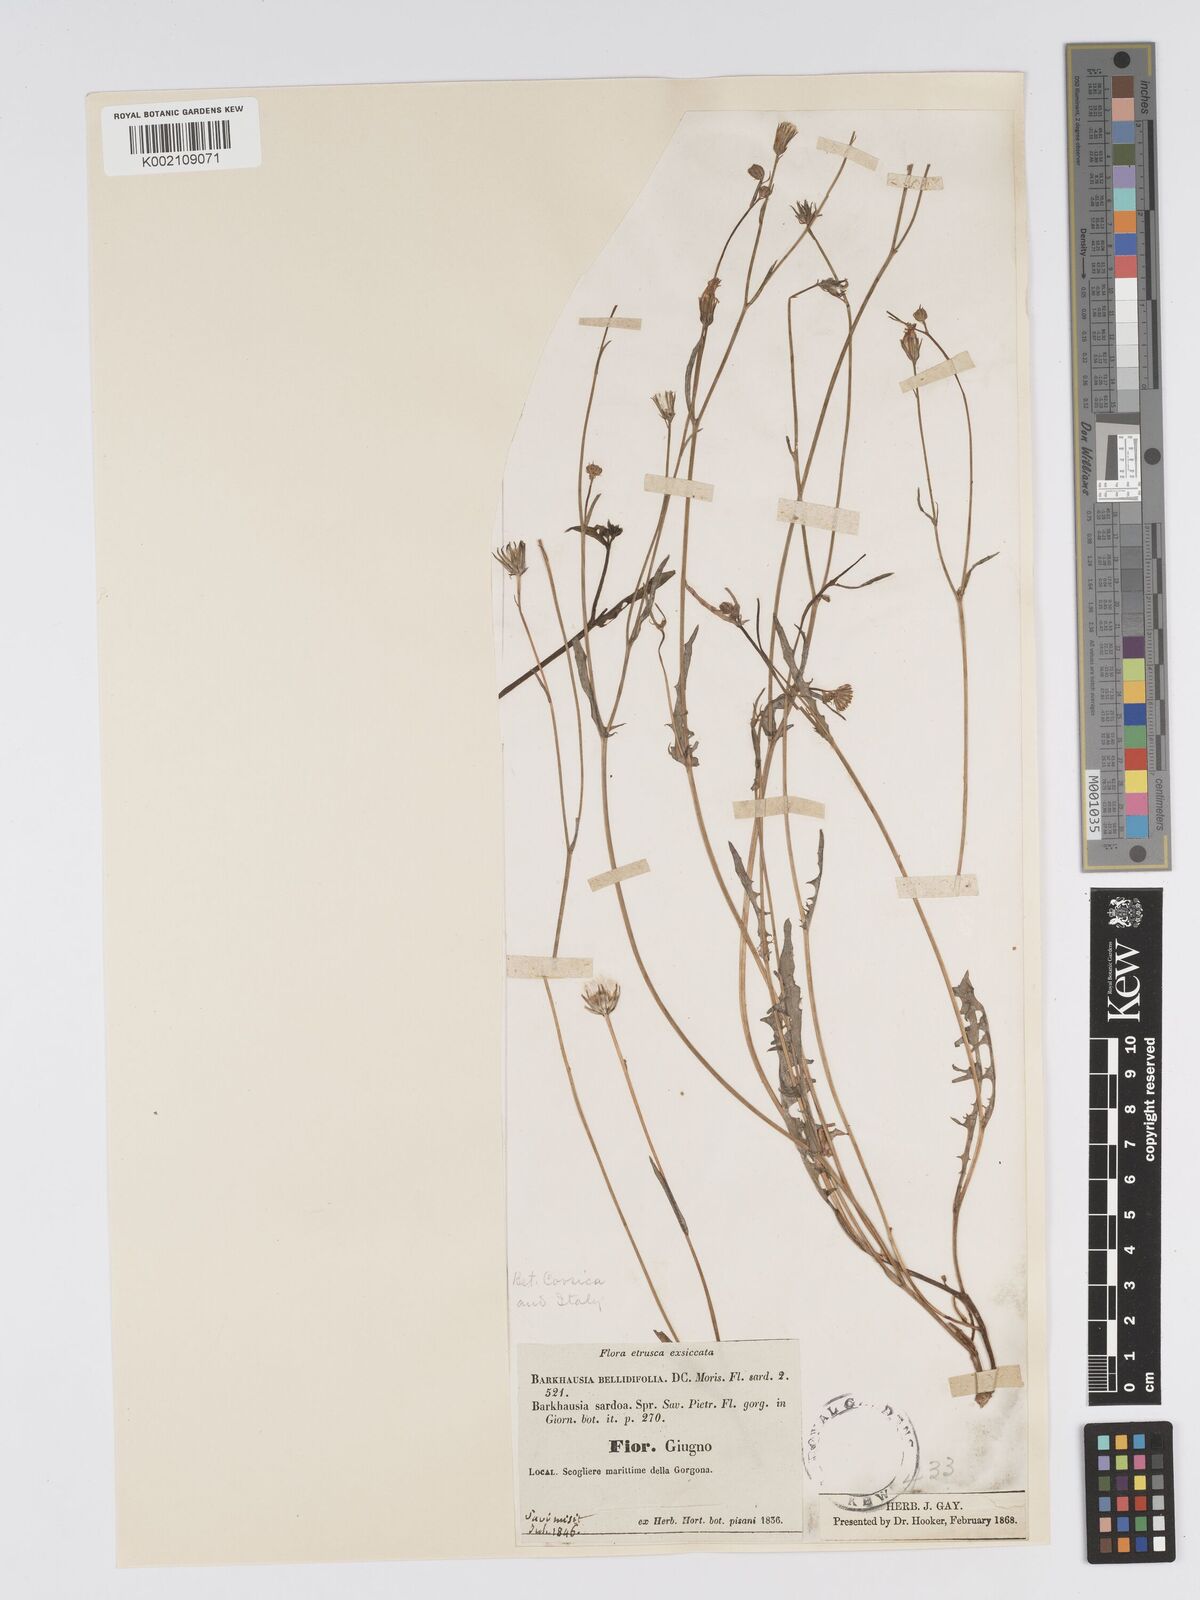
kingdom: Plantae
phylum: Tracheophyta
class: Magnoliopsida
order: Asterales
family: Asteraceae
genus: Crepis
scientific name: Crepis bellidifolia
